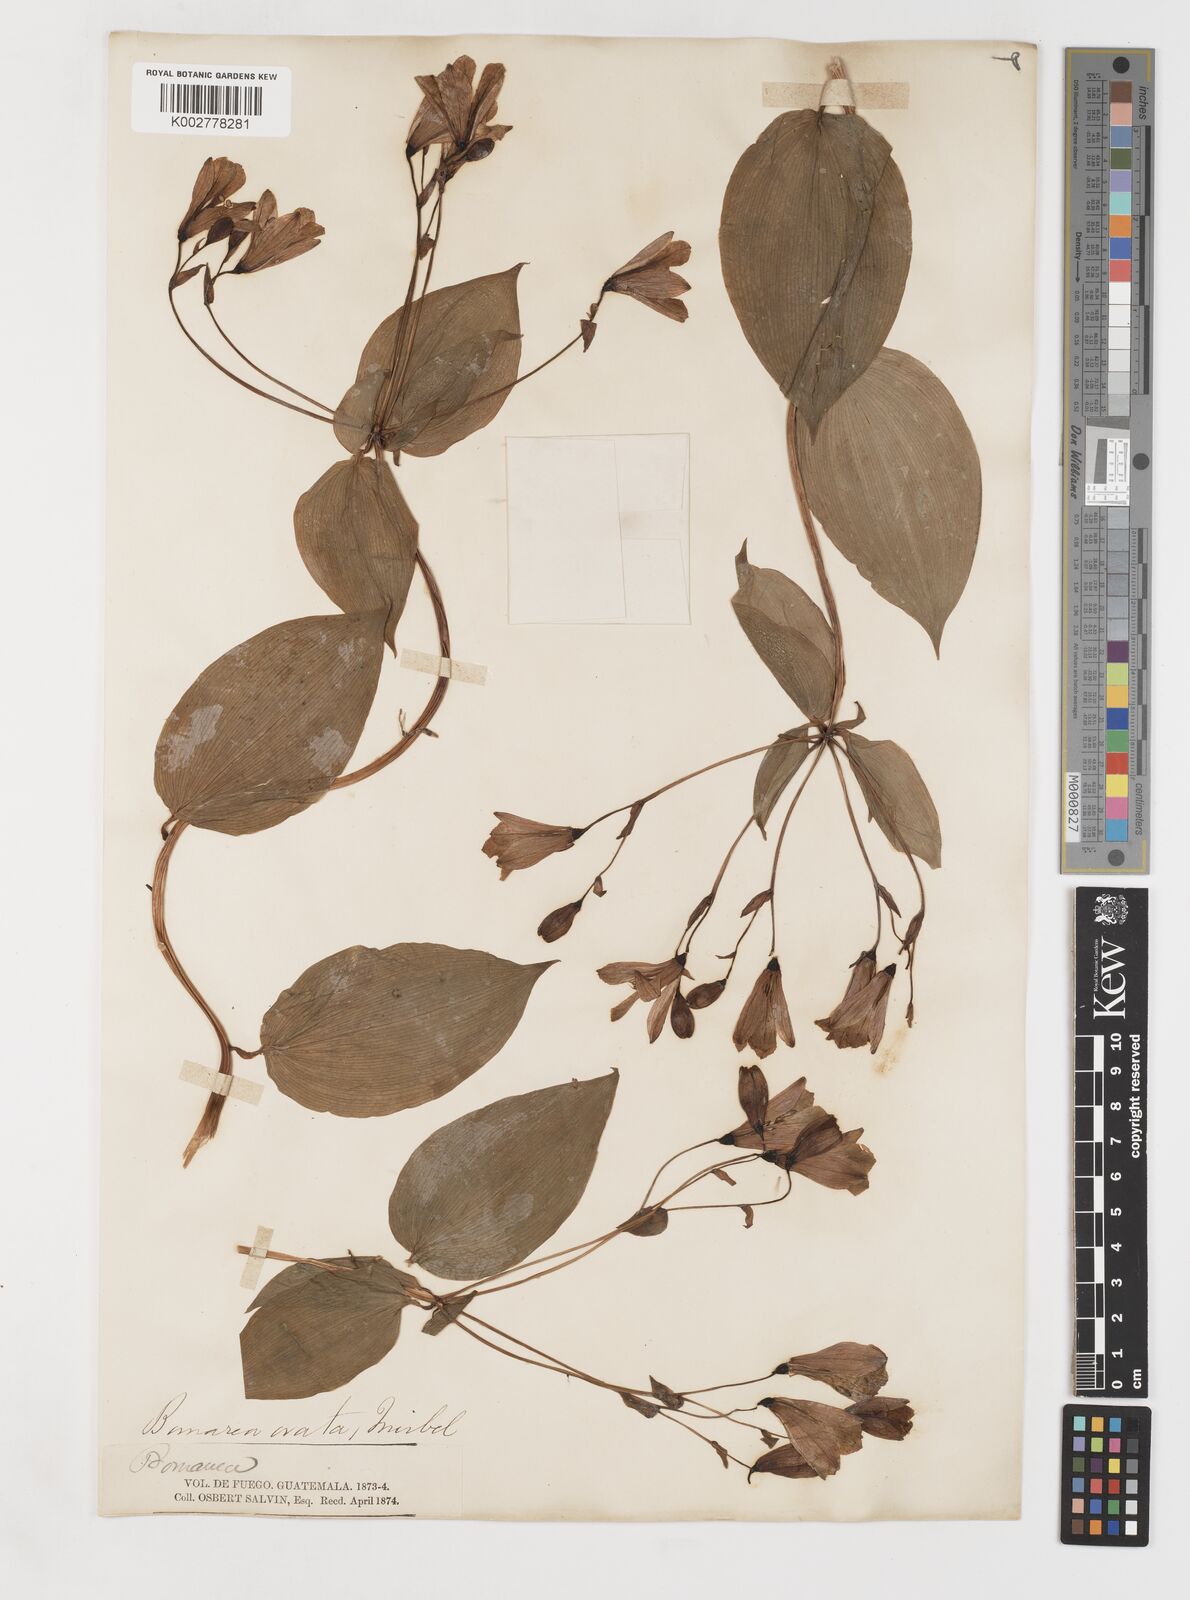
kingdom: Plantae
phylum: Tracheophyta
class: Liliopsida
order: Liliales
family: Alstroemeriaceae
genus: Bomarea
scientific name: Bomarea edulis
